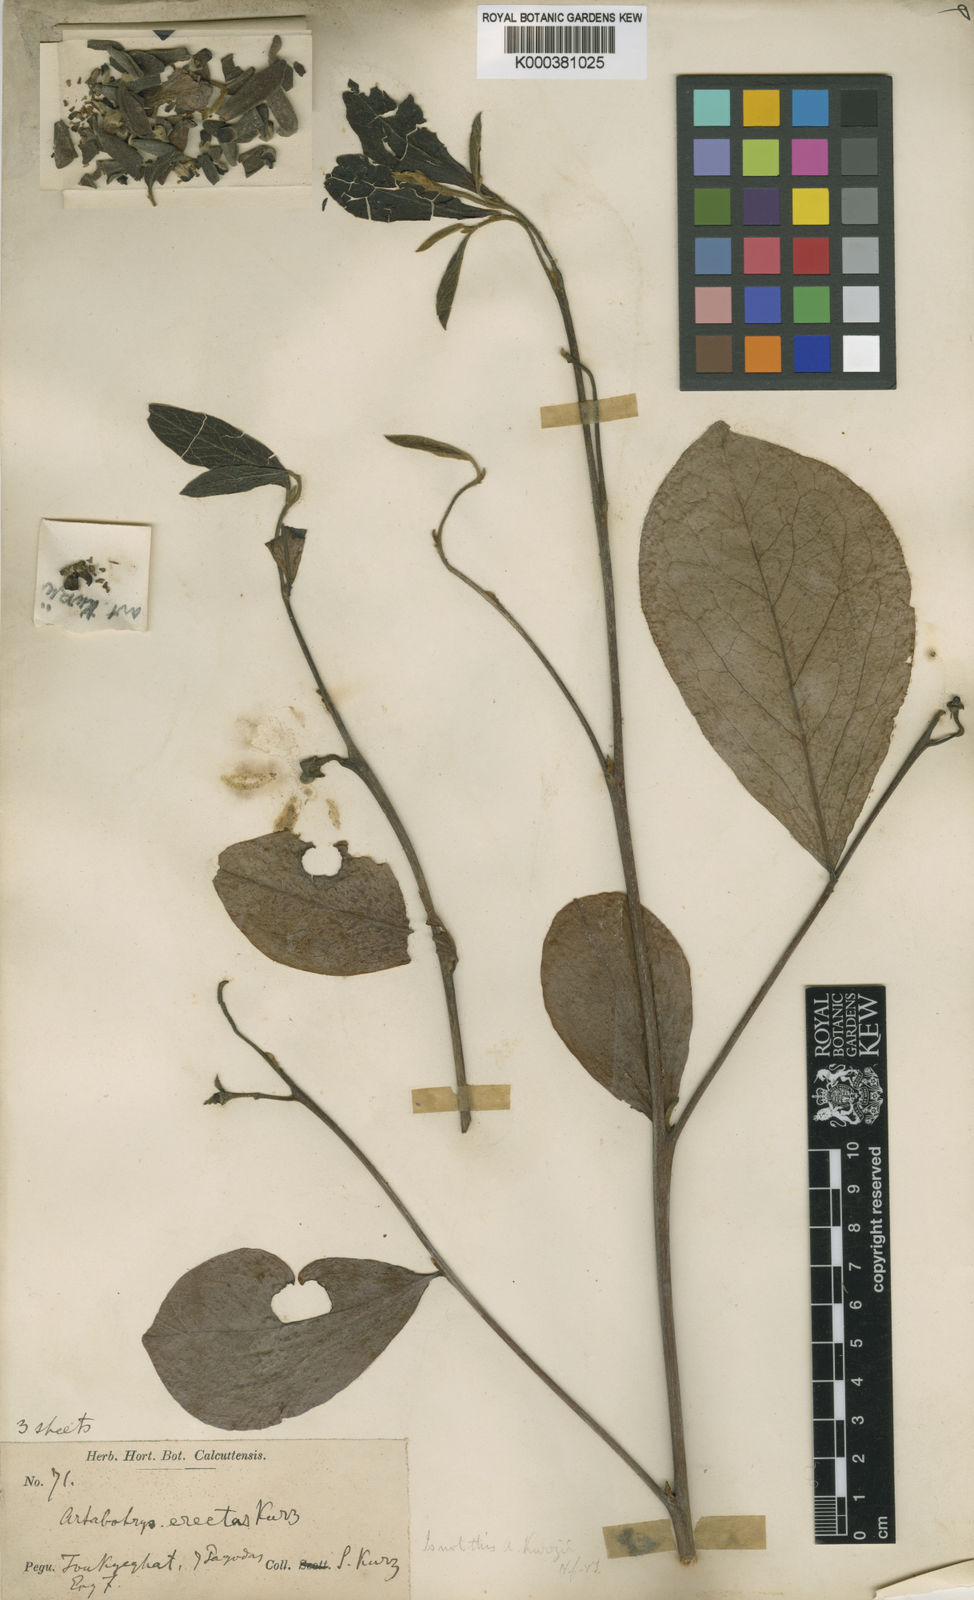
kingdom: Plantae
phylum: Tracheophyta
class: Magnoliopsida
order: Magnoliales
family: Annonaceae
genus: Artabotrys
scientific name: Artabotrys kurzii
